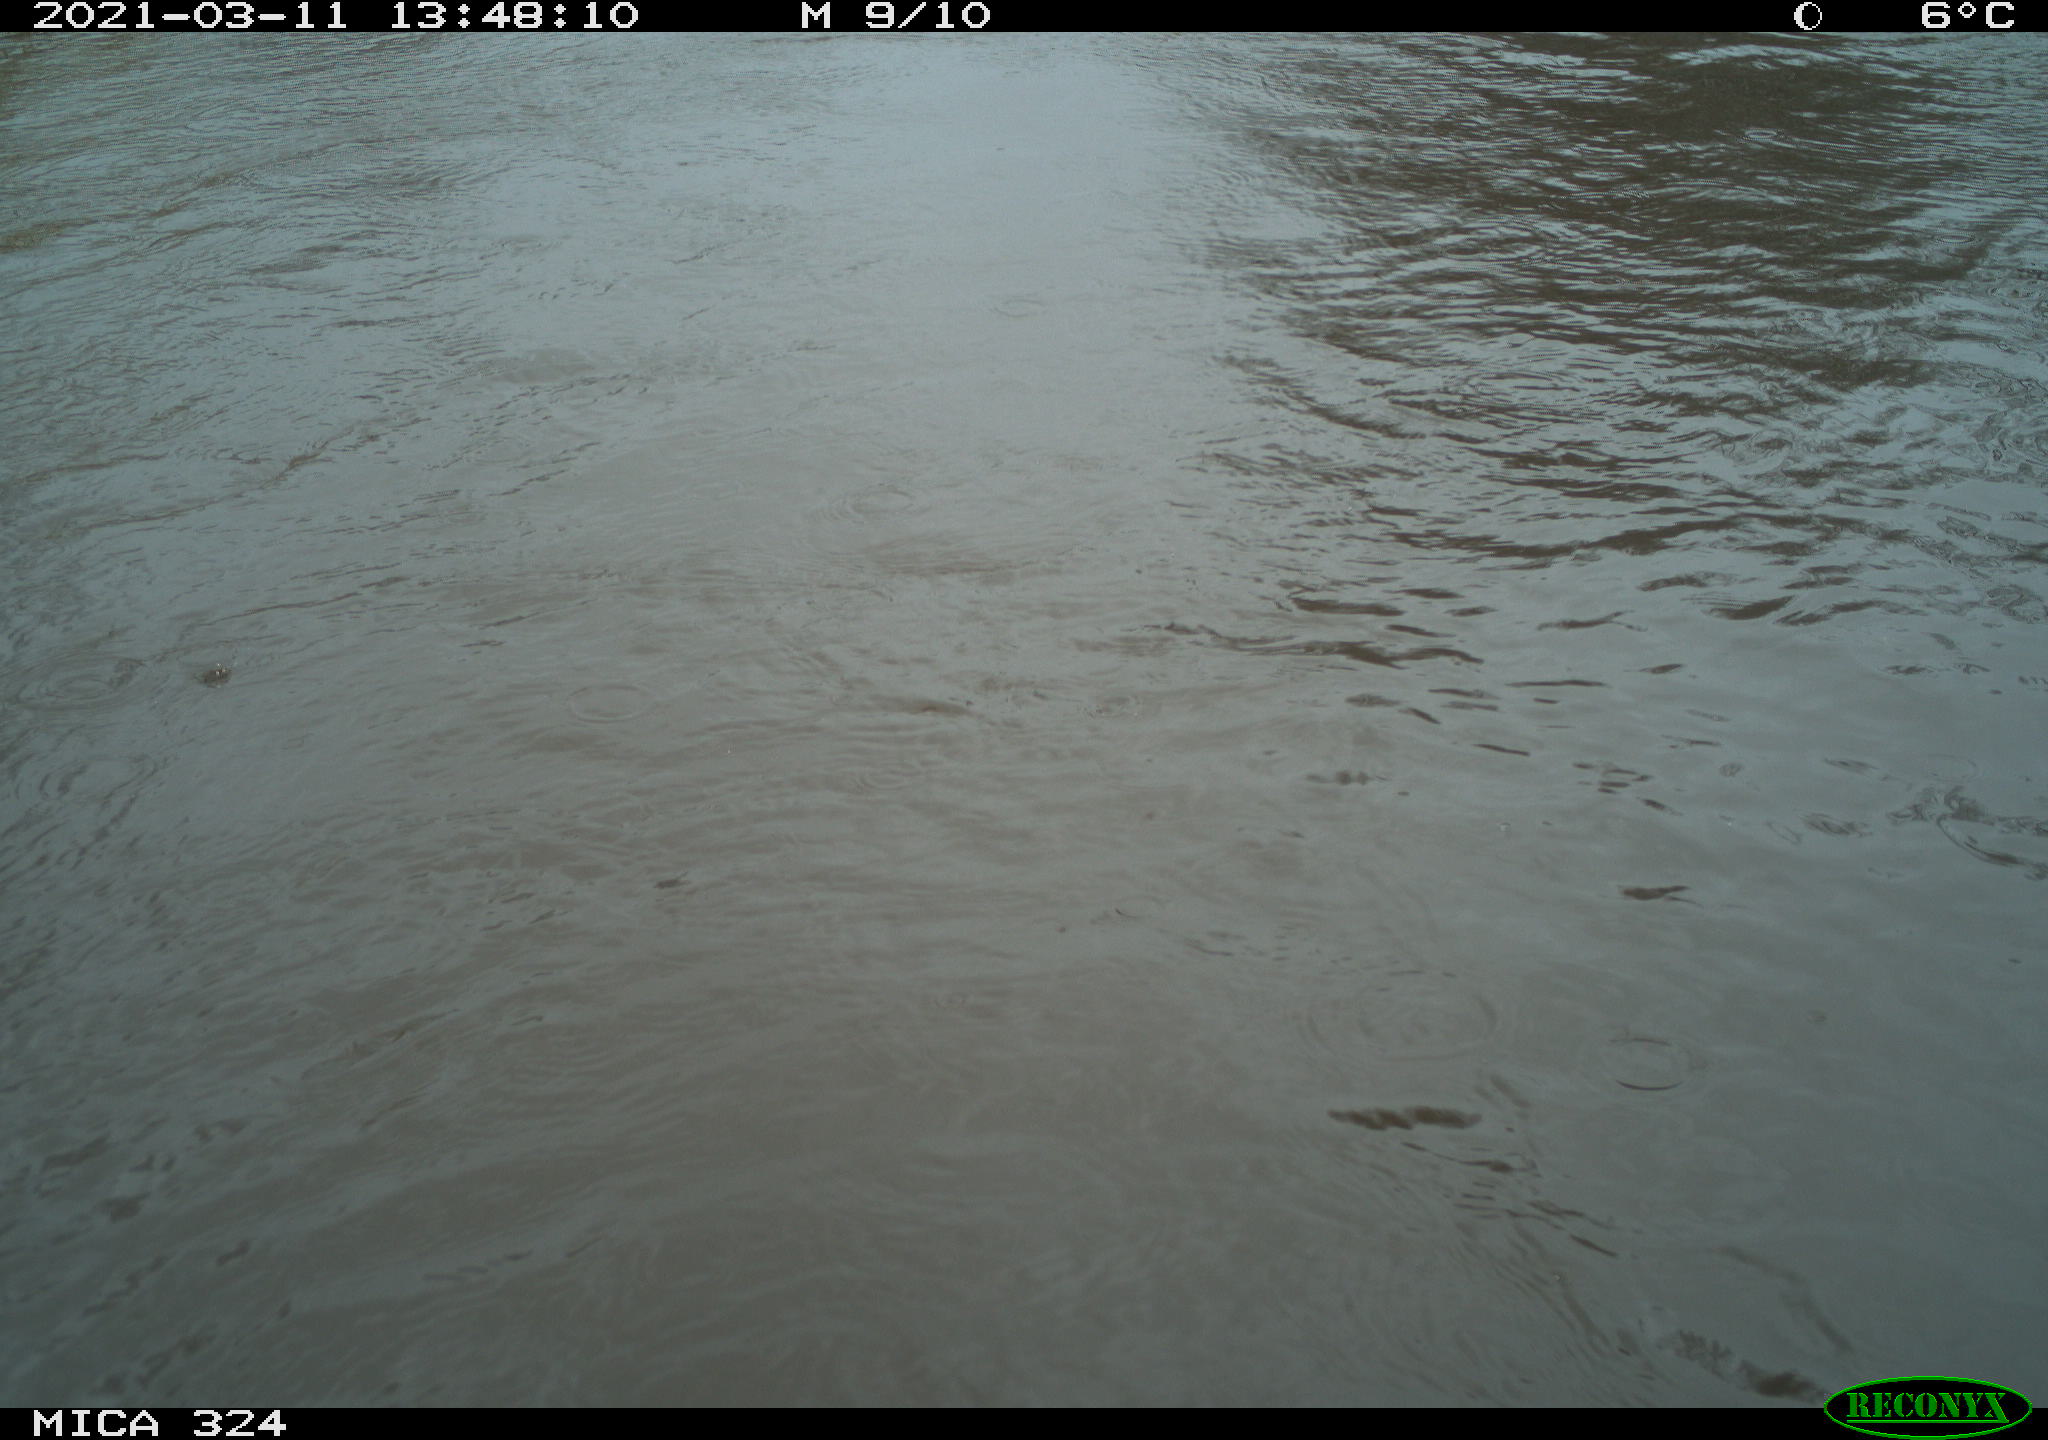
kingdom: Animalia
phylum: Chordata
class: Aves
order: Gruiformes
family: Rallidae
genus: Gallinula
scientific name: Gallinula chloropus
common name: Common moorhen
